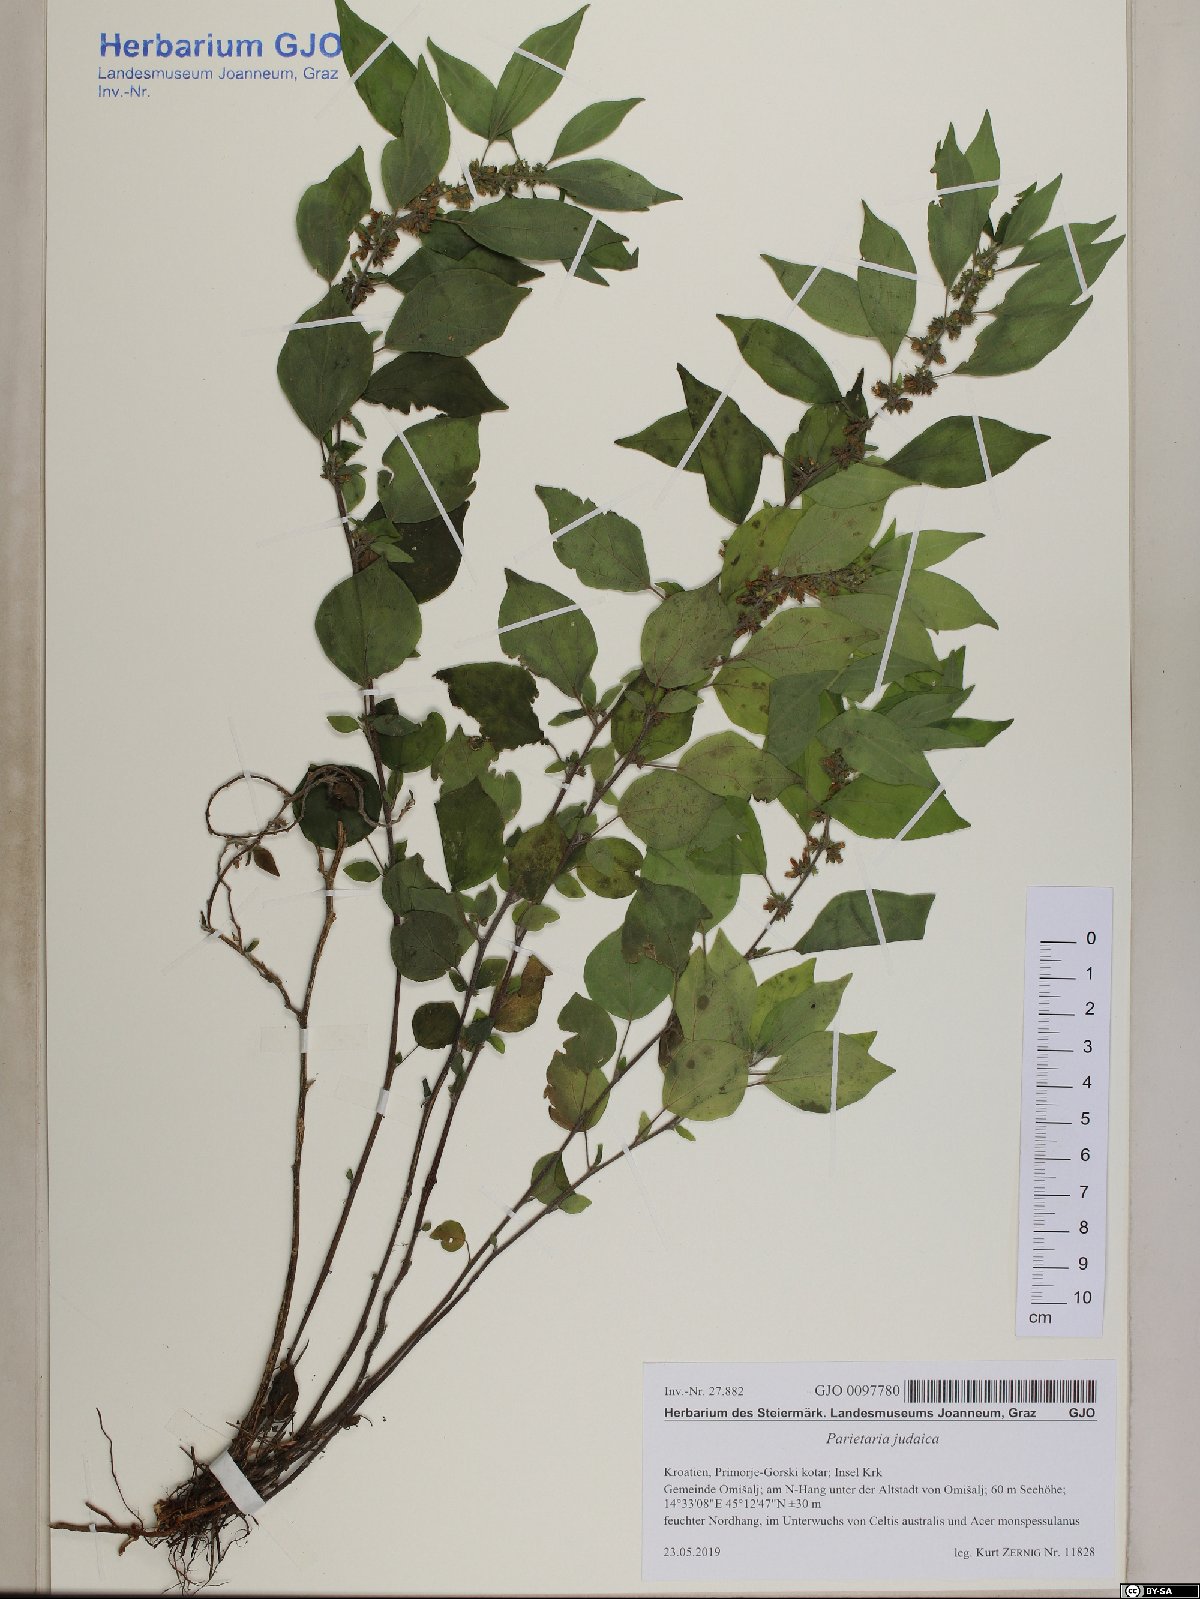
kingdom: Plantae
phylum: Tracheophyta
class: Magnoliopsida
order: Rosales
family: Urticaceae
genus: Parietaria
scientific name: Parietaria judaica
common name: Pellitory-of-the-wall
